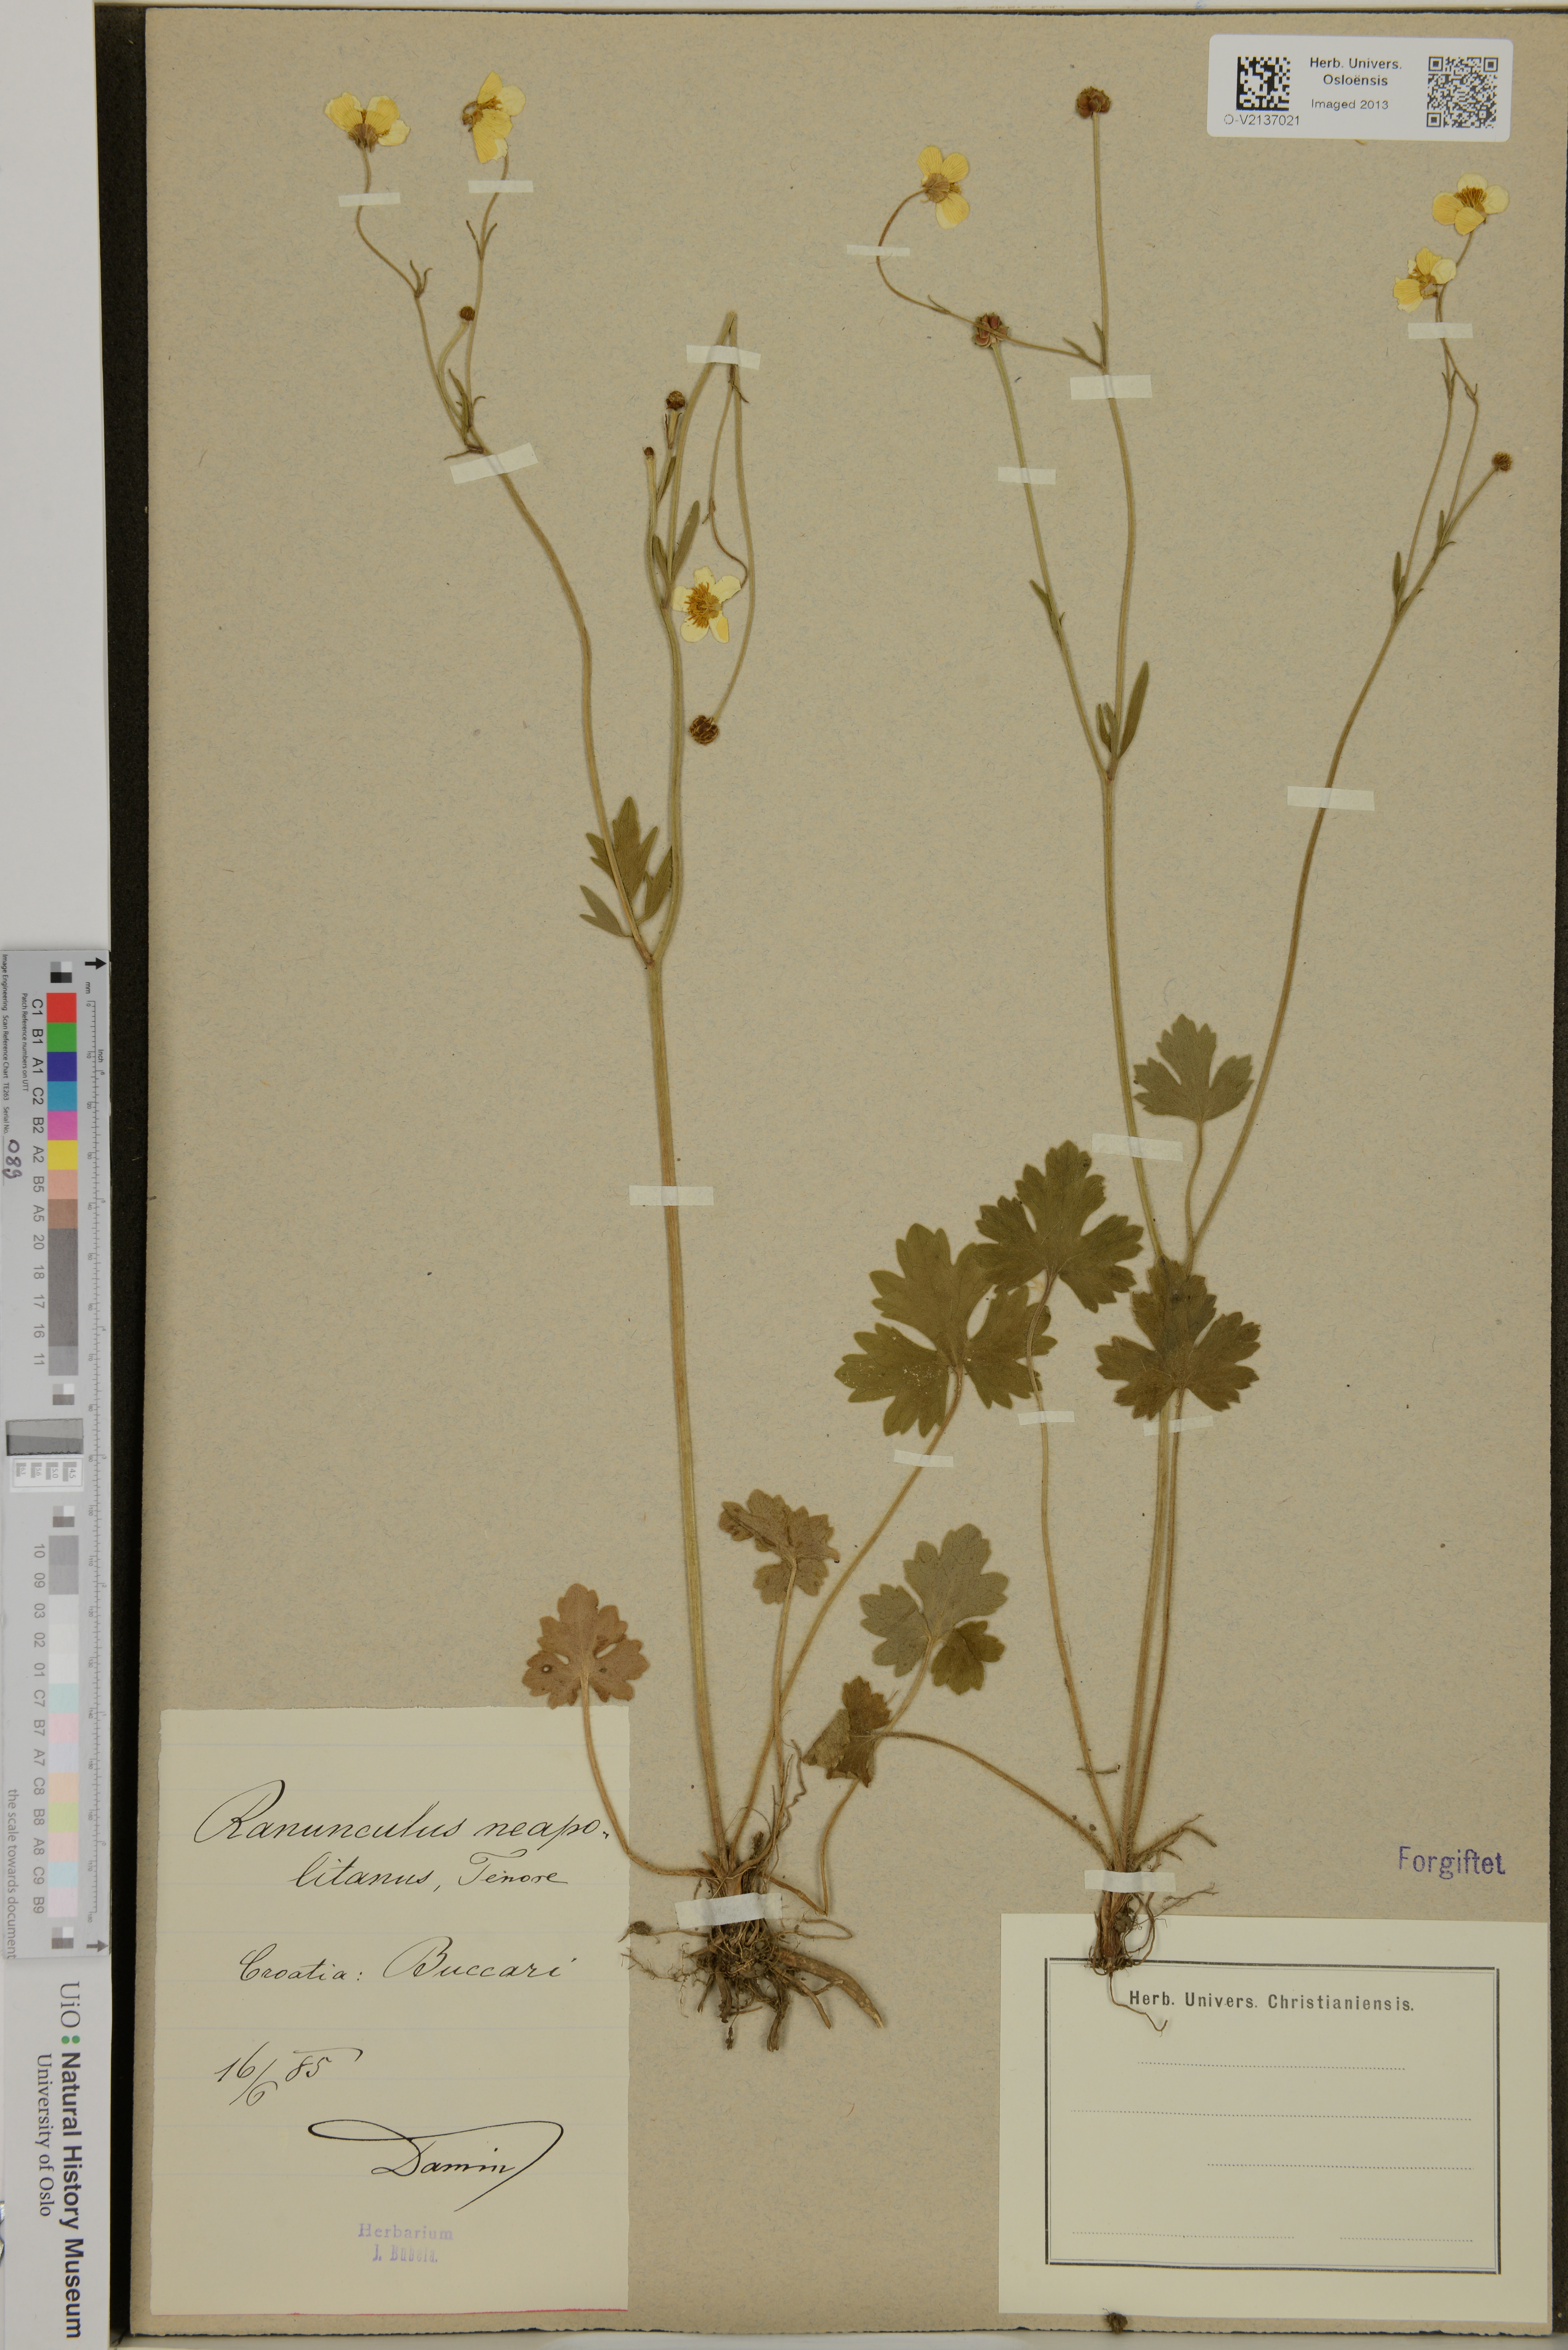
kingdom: Plantae
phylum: Tracheophyta
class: Magnoliopsida
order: Ranunculales
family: Ranunculaceae
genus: Ranunculus
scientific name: Ranunculus neapolitanus
